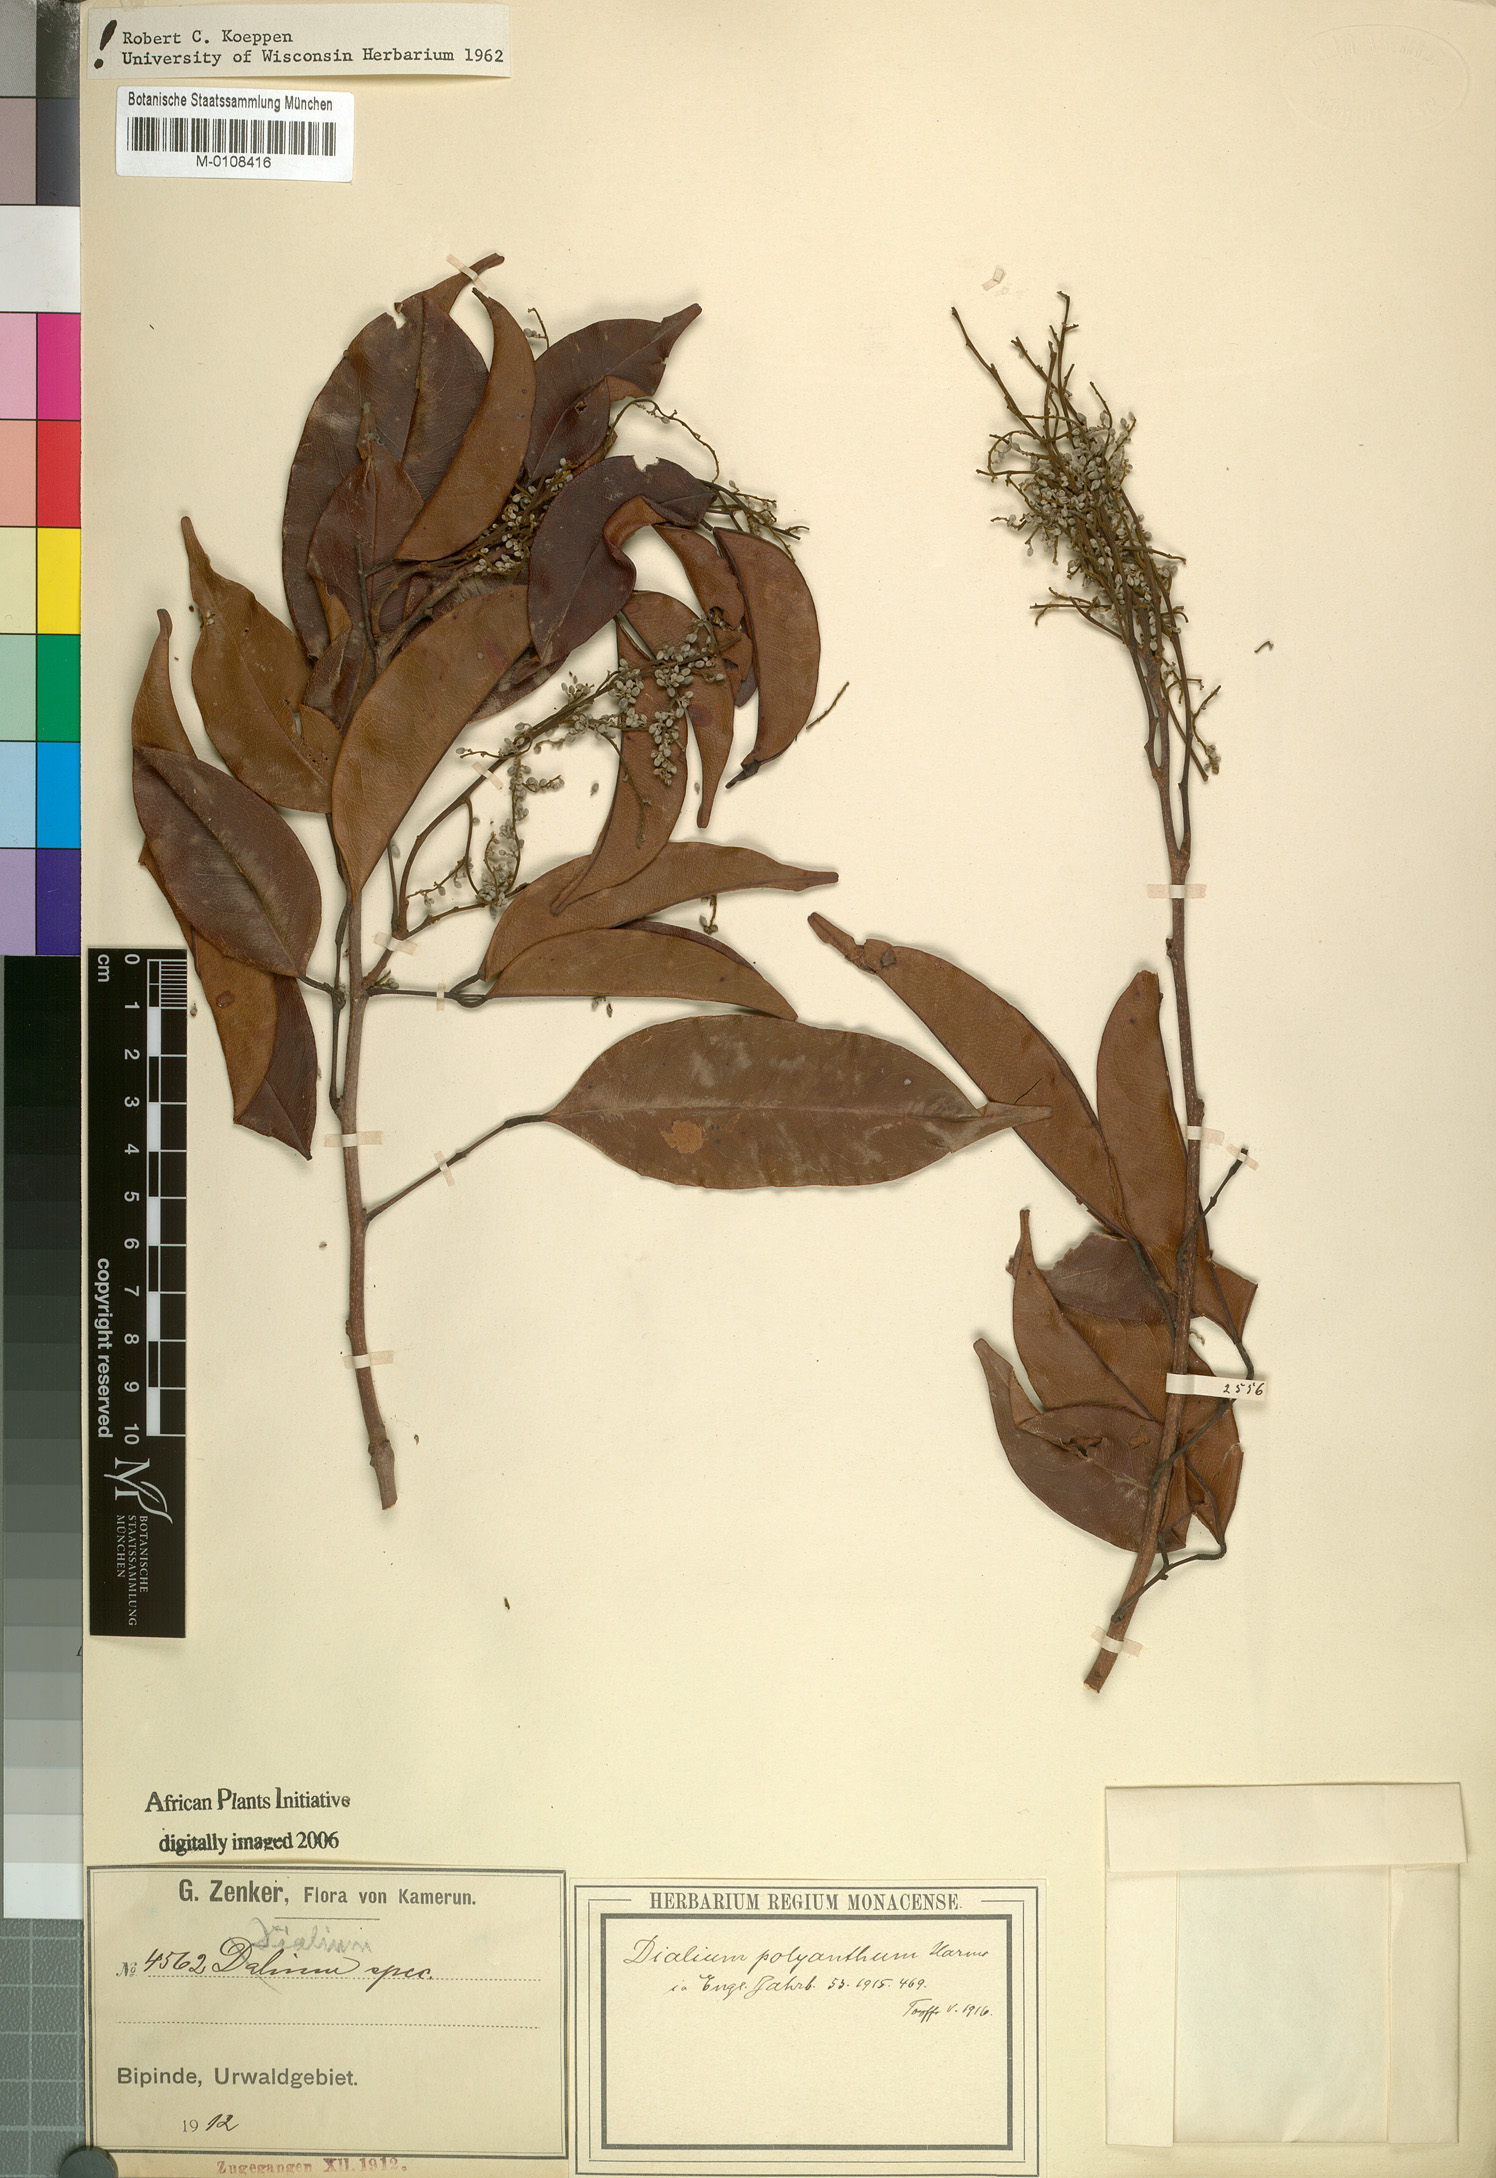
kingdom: Plantae
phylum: Tracheophyta
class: Magnoliopsida
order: Fabales
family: Fabaceae
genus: Dialium
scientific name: Dialium polyanthum
